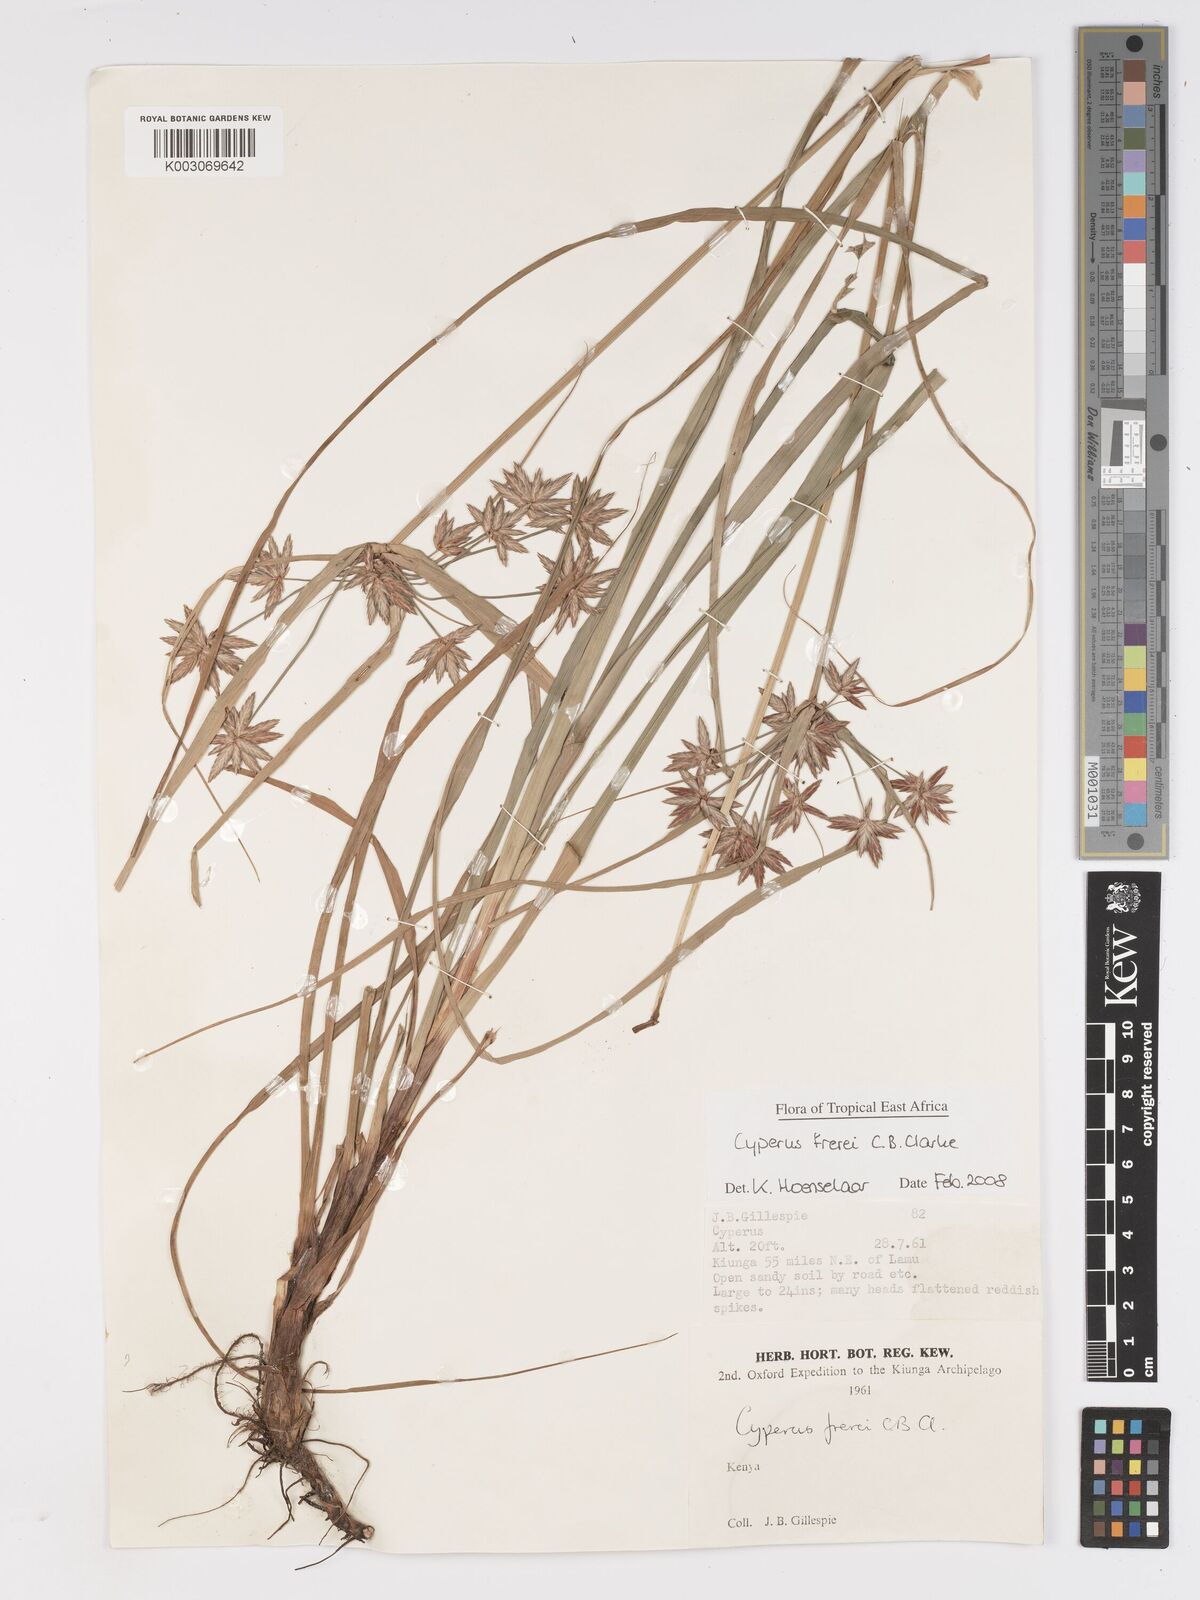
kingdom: Plantae
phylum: Tracheophyta
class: Liliopsida
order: Poales
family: Cyperaceae
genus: Cyperus
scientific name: Cyperus crassipes
